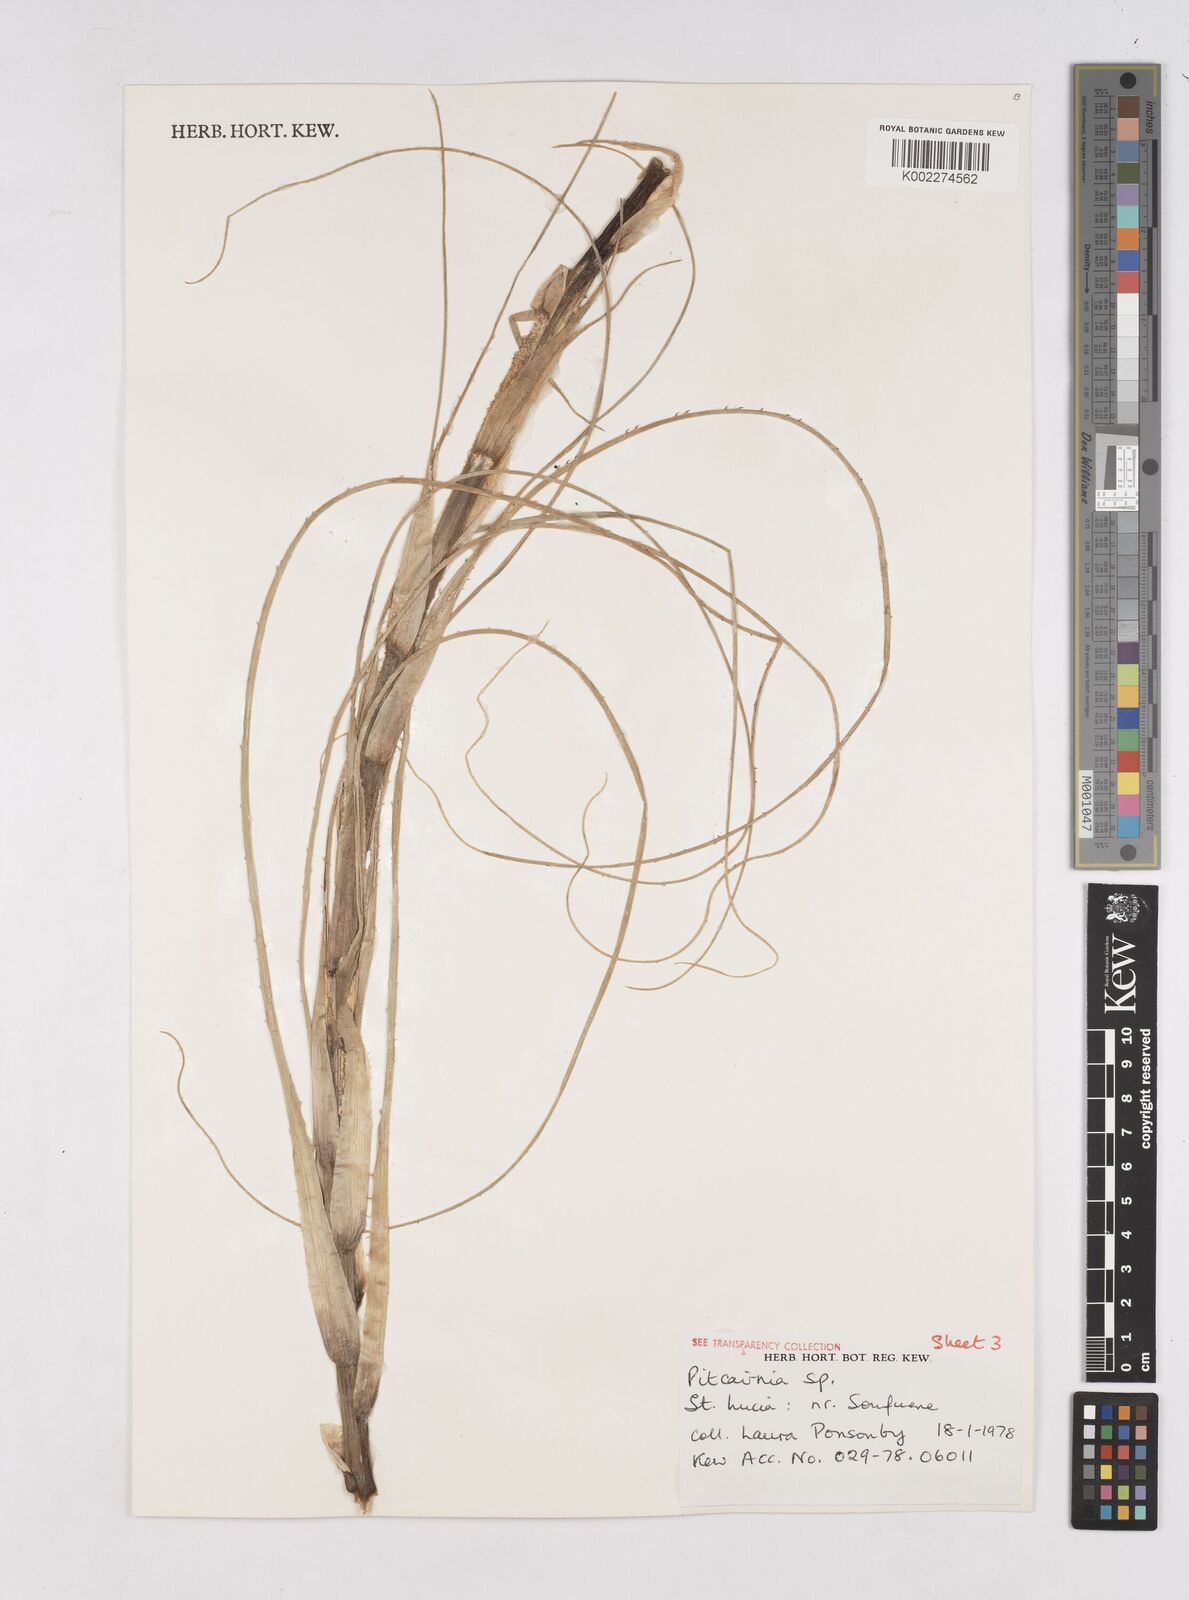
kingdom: Plantae
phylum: Tracheophyta
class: Liliopsida
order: Poales
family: Bromeliaceae
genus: Pitcairnia
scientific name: Pitcairnia
